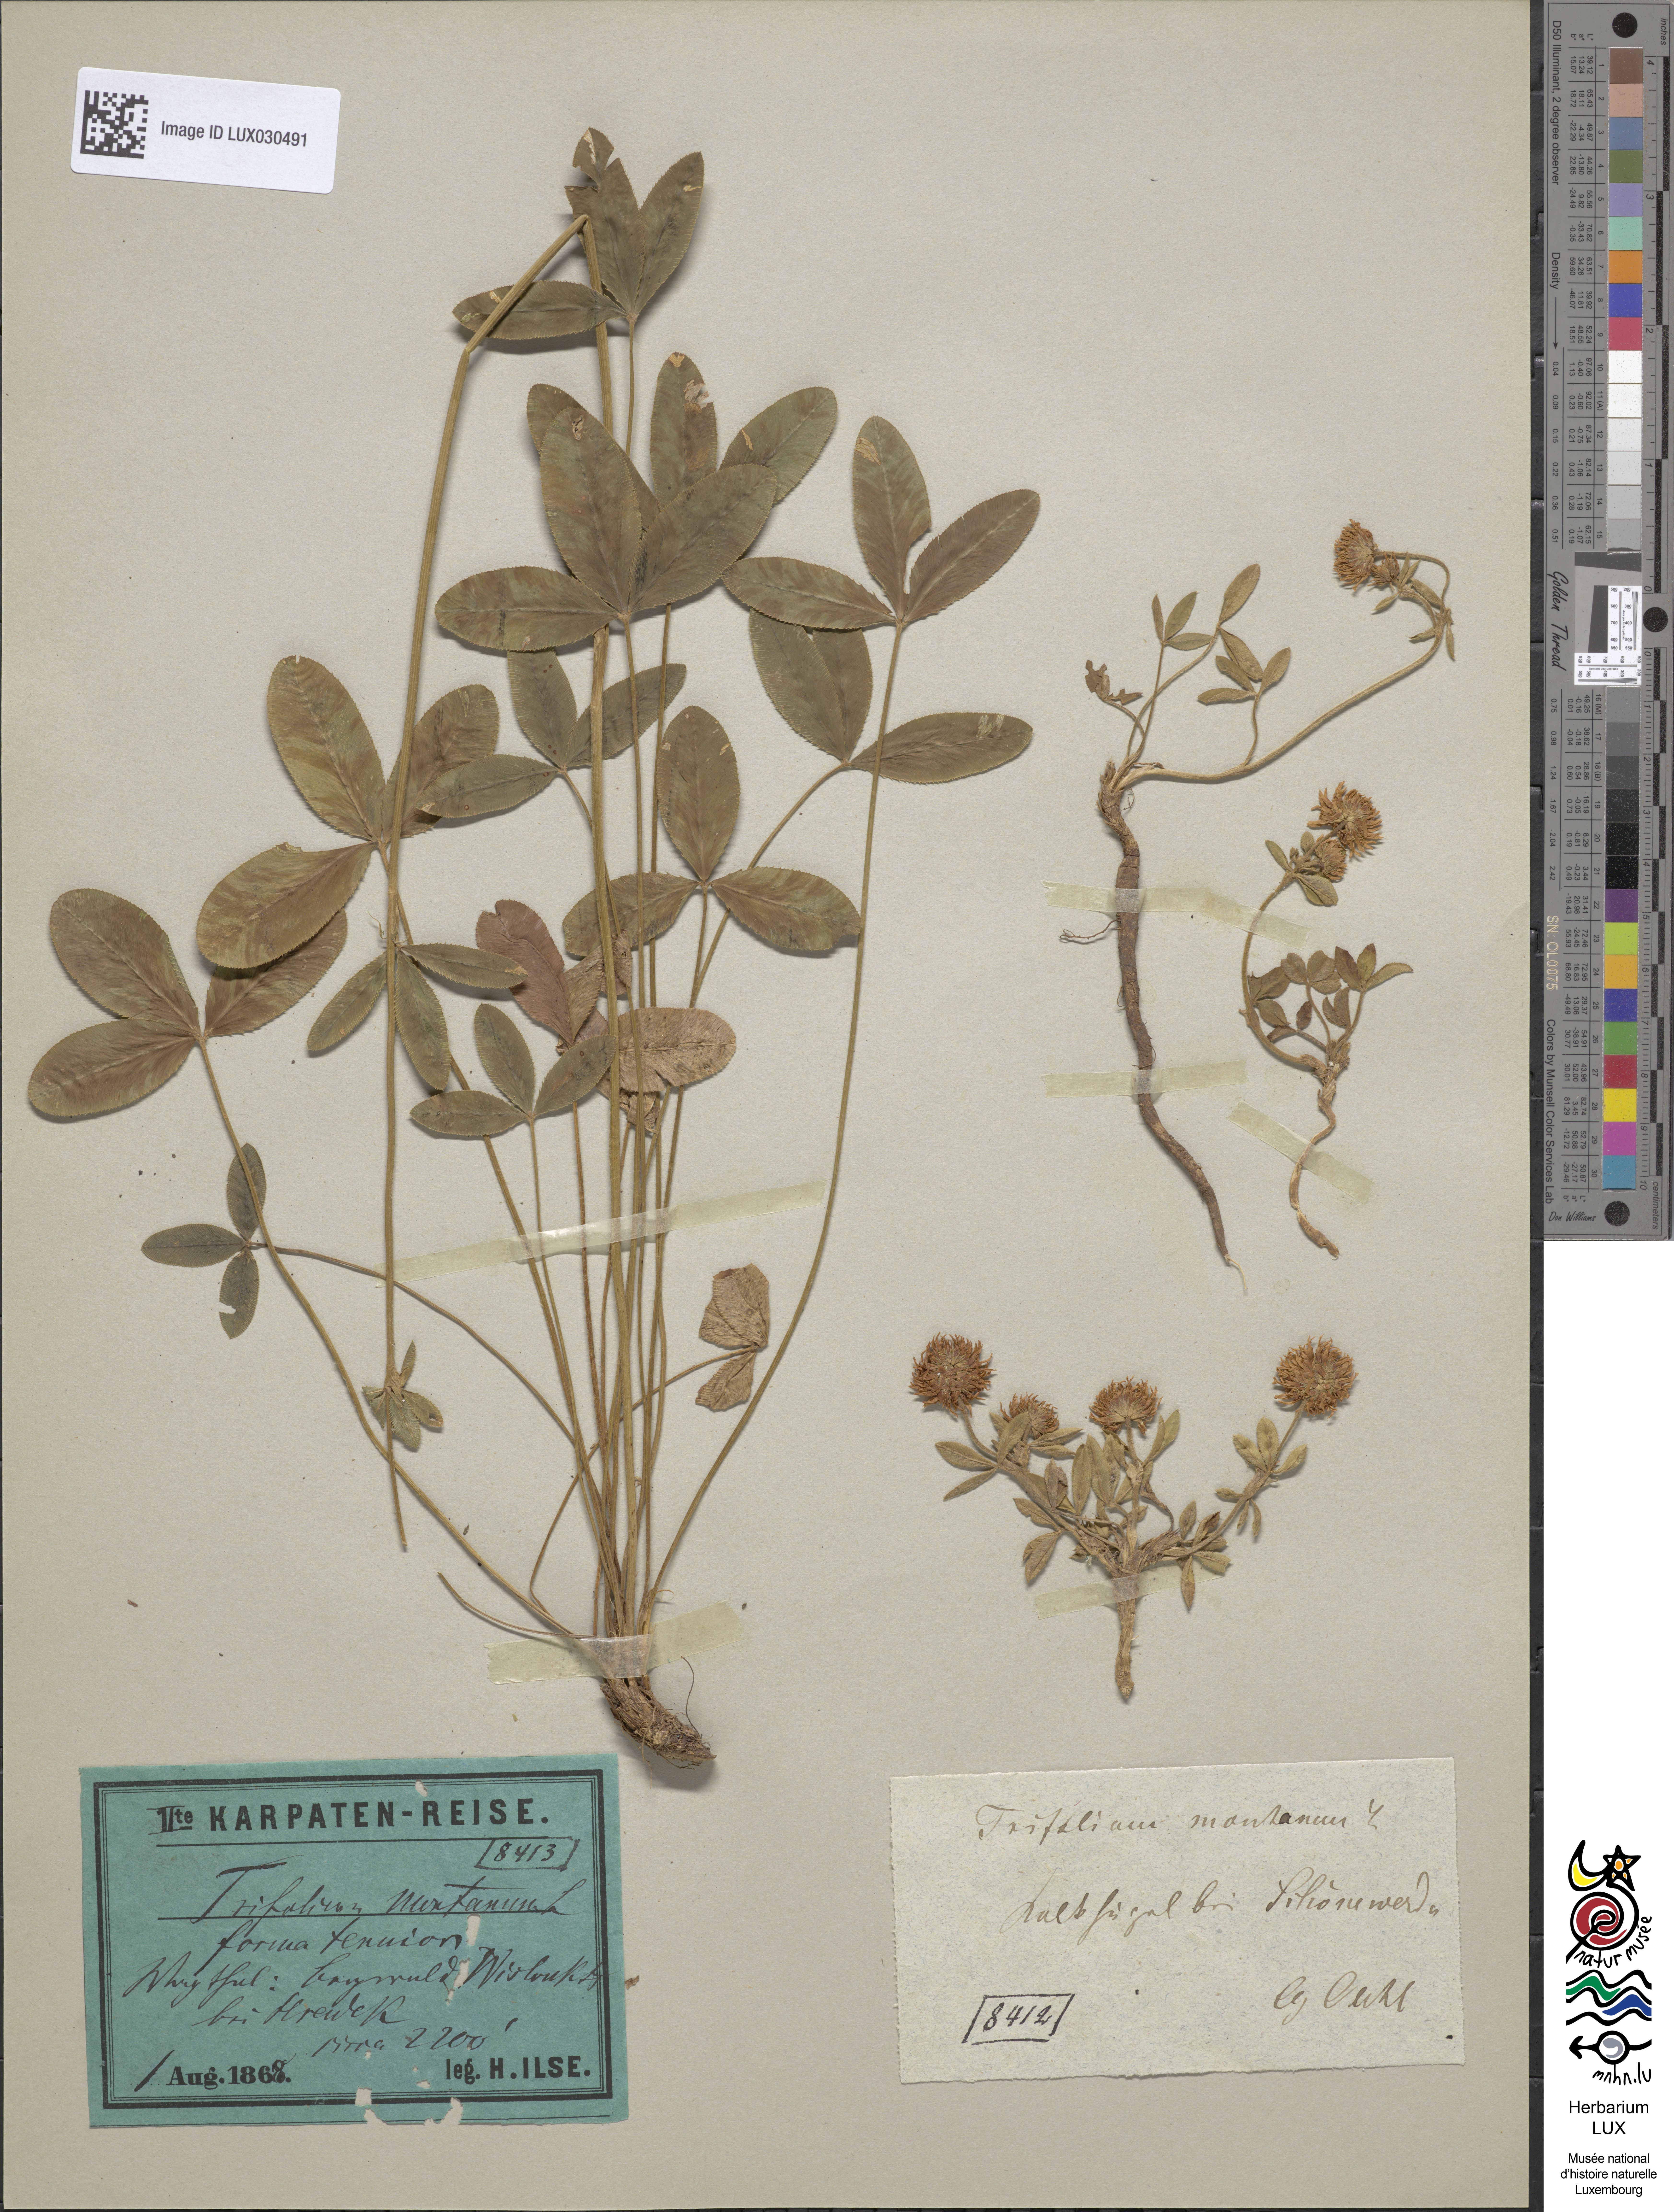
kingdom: Plantae
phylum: Tracheophyta
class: Magnoliopsida
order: Fabales
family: Fabaceae
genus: Trifolium
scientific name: Trifolium montanum
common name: Mountain clover
